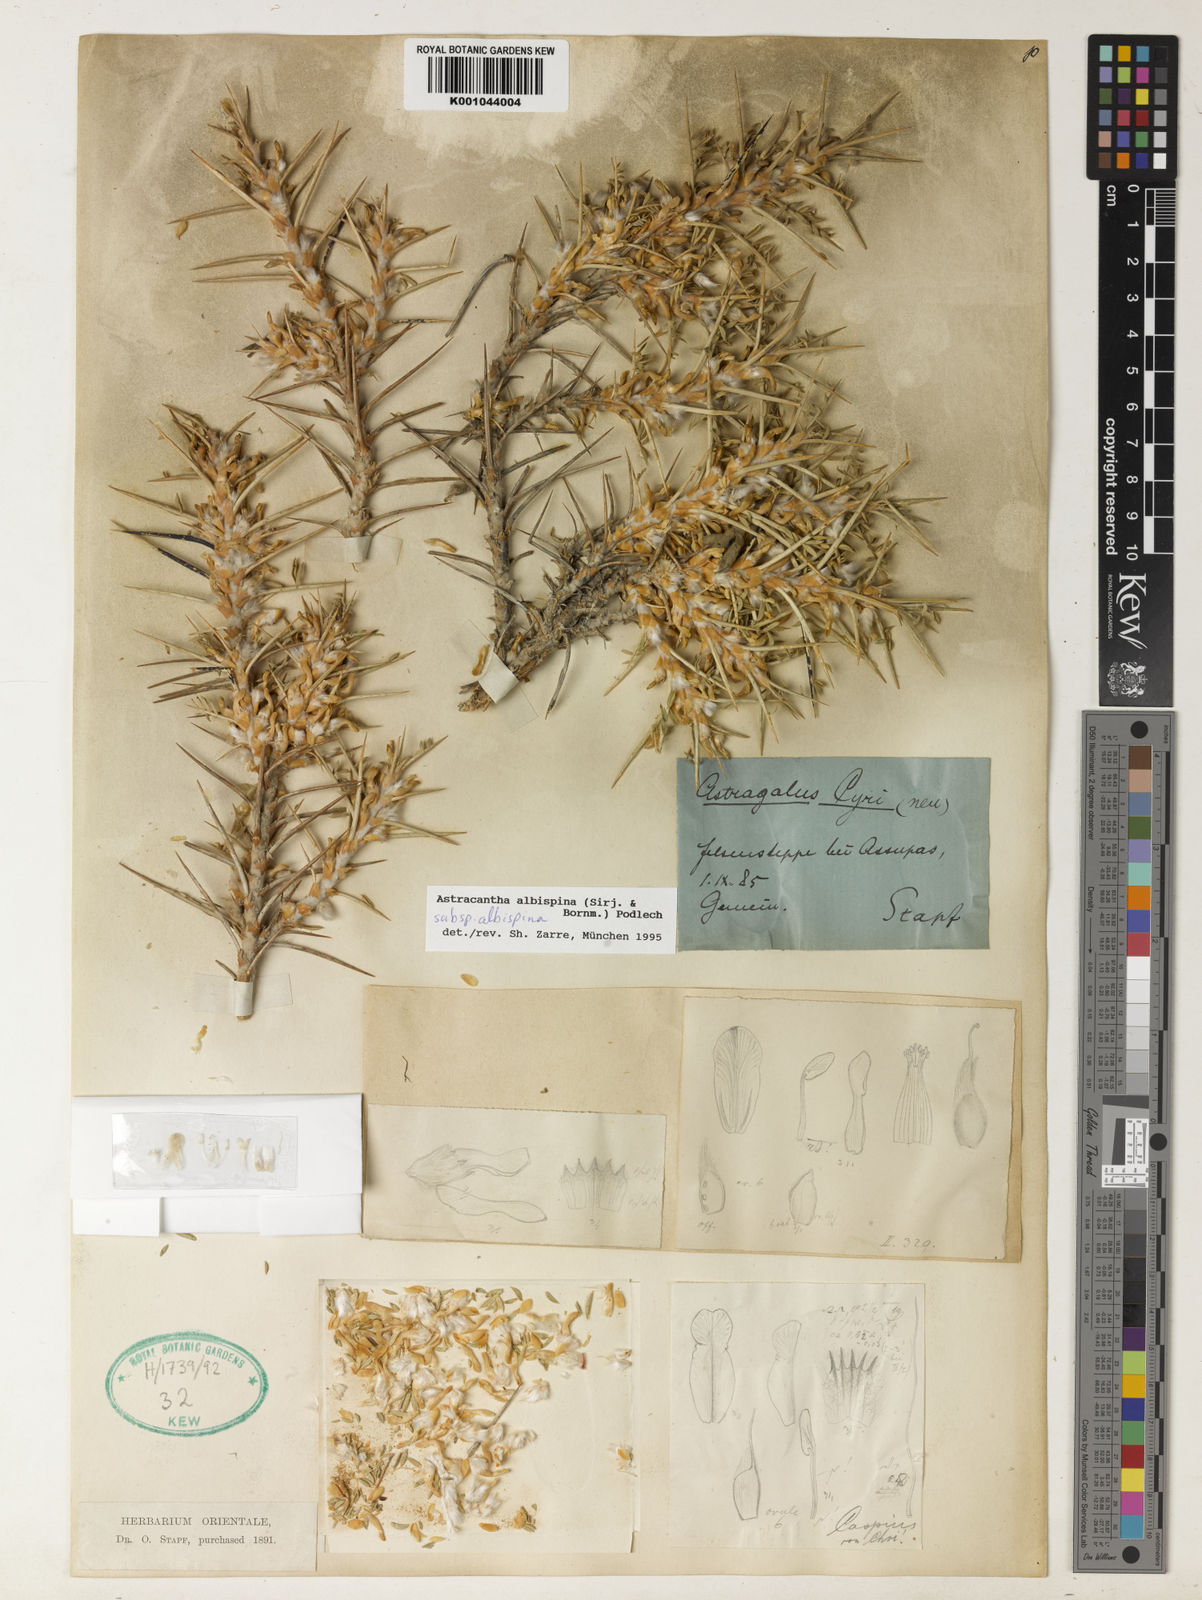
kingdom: Plantae
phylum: Tracheophyta
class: Magnoliopsida
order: Fabales
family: Fabaceae
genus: Astragalus
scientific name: Astragalus albispinus
